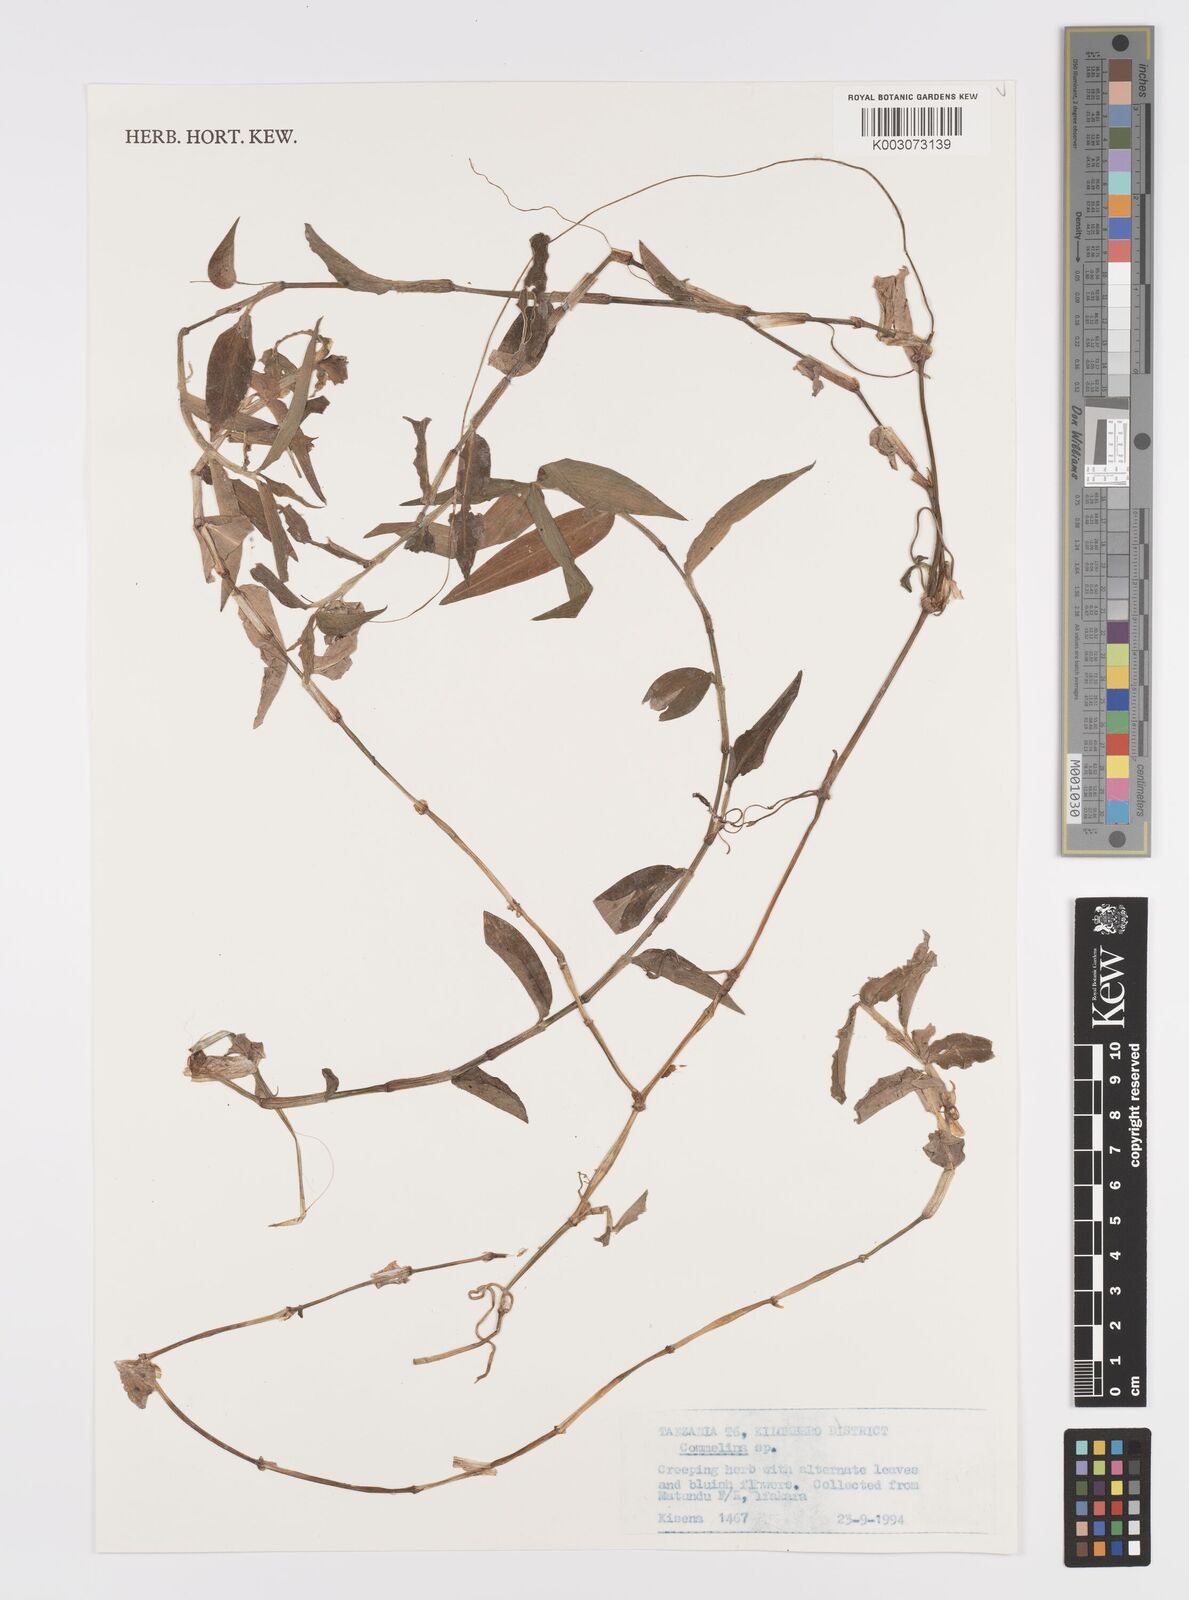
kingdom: Plantae
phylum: Tracheophyta
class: Liliopsida
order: Commelinales
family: Commelinaceae
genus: Commelina
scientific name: Commelina diffusa
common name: Climbing dayflower
